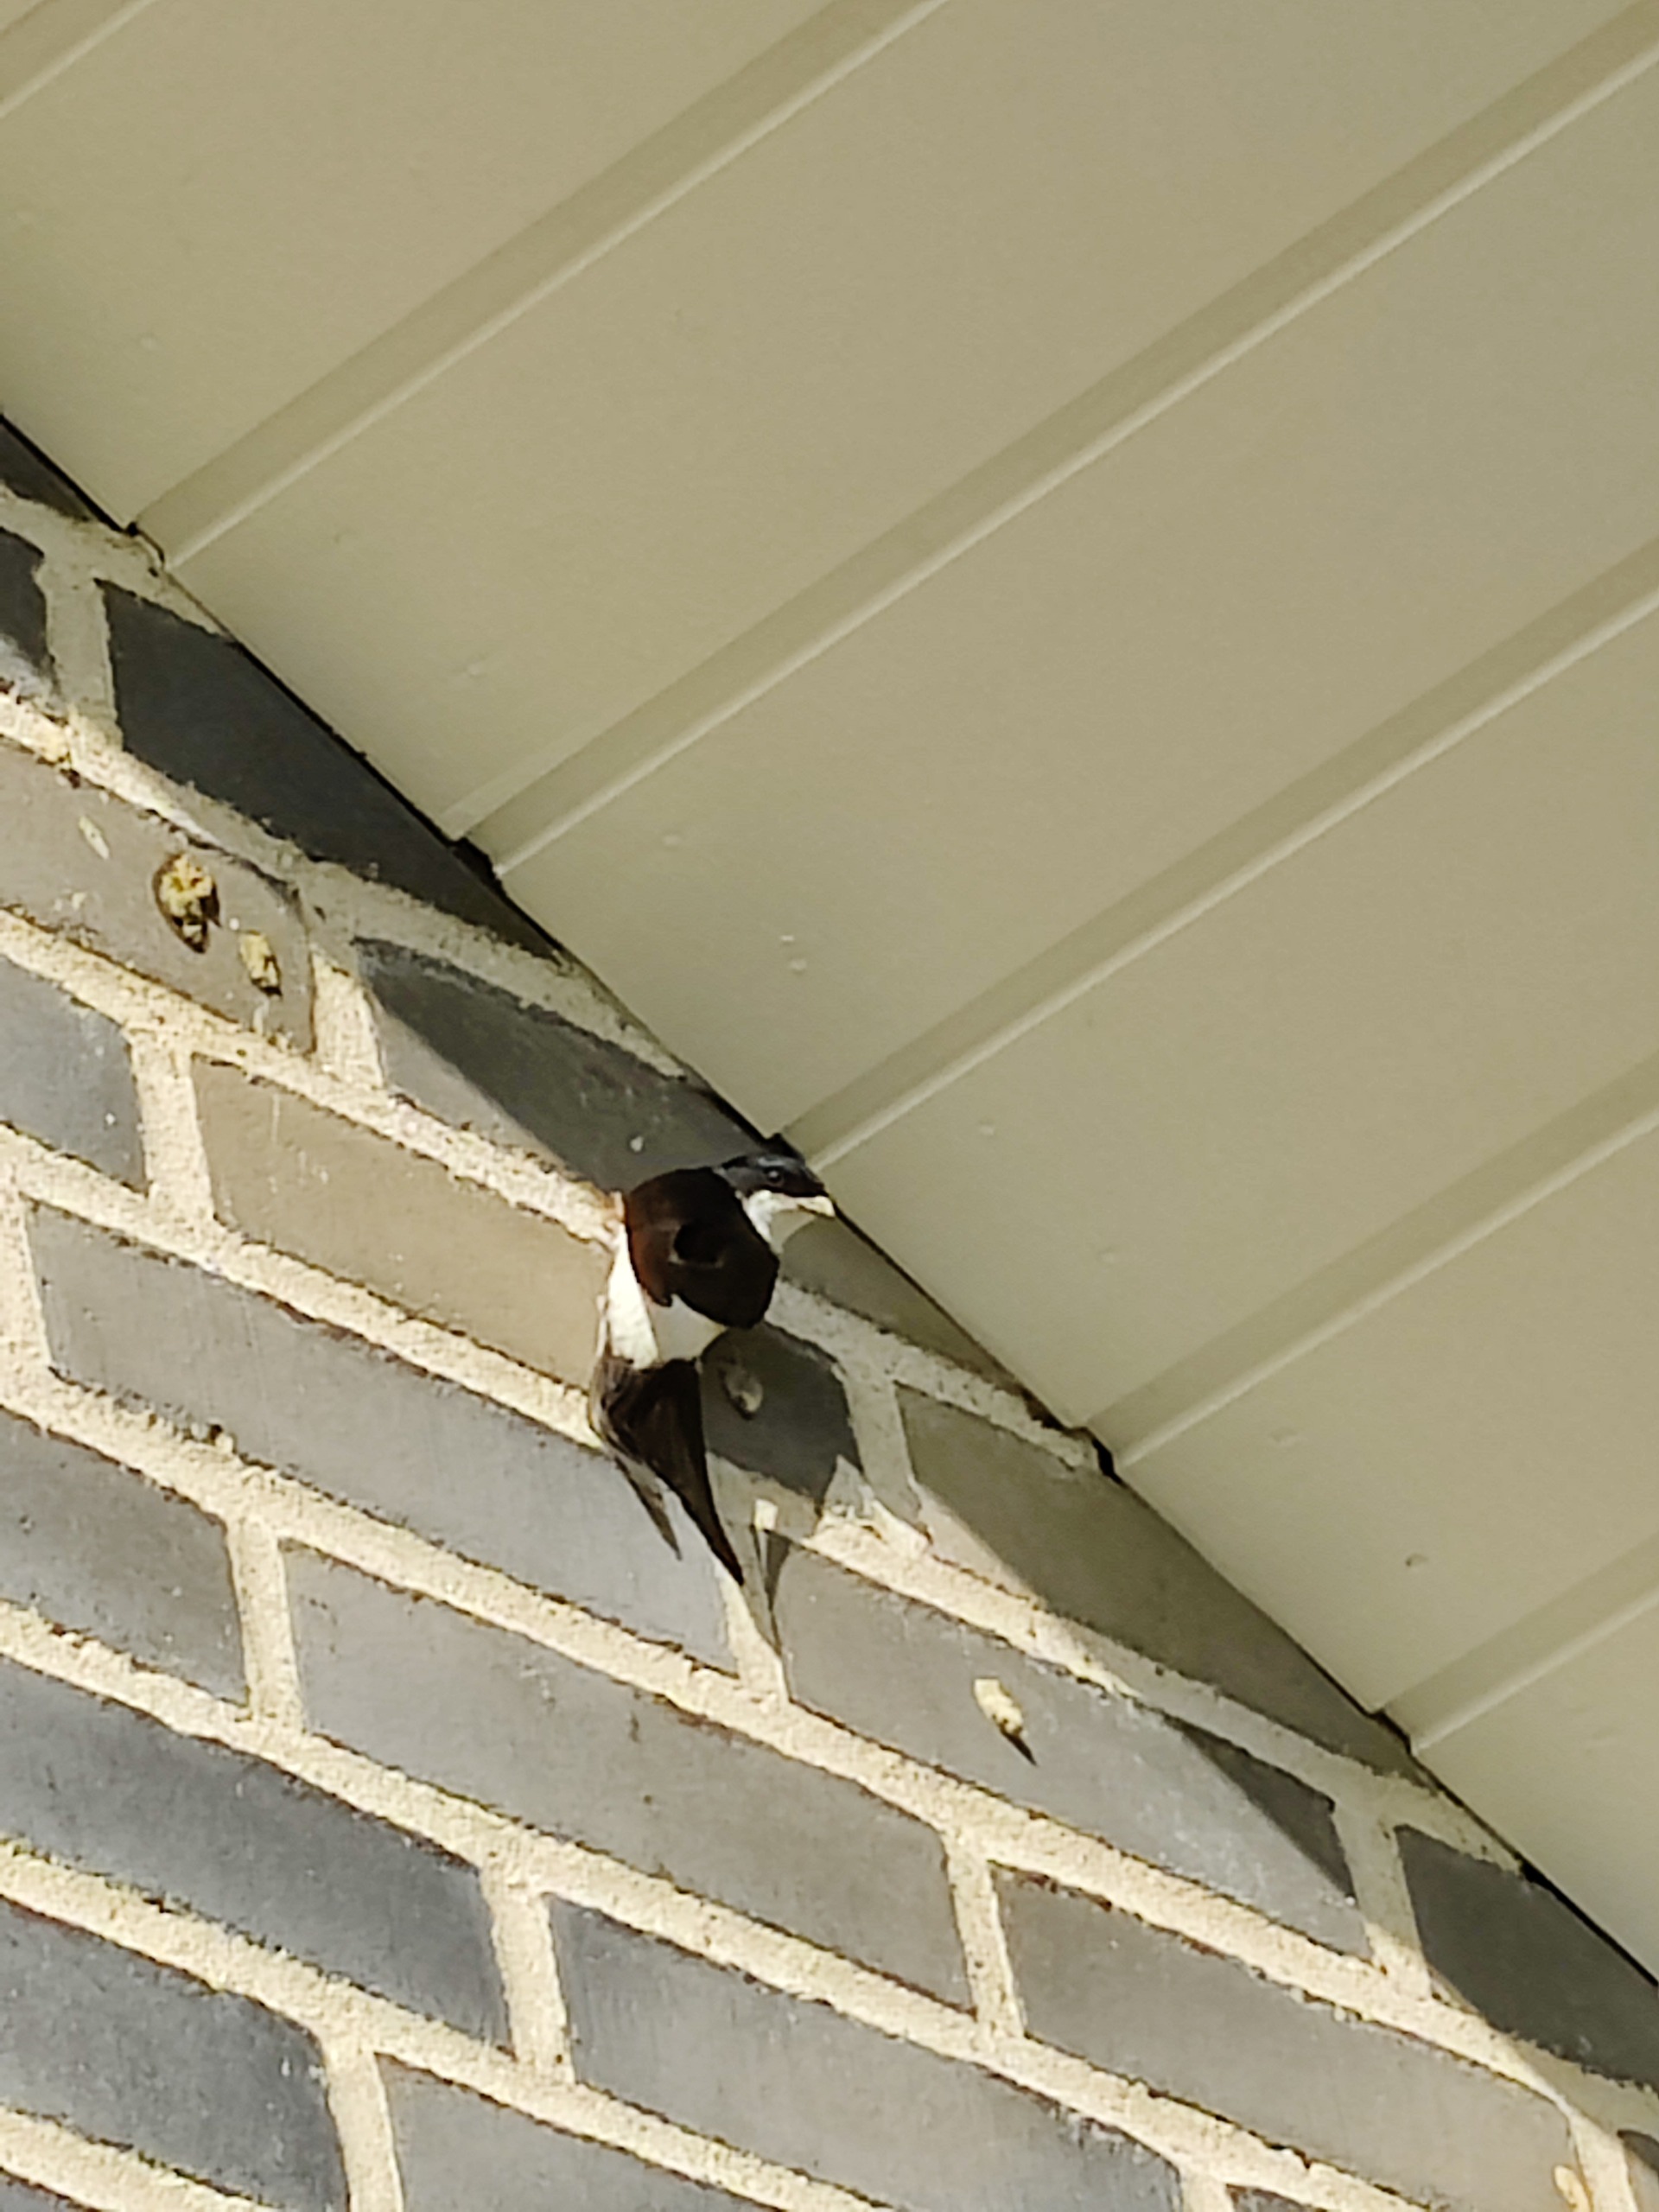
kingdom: Animalia
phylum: Chordata
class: Aves
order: Passeriformes
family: Hirundinidae
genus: Delichon
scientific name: Delichon urbicum
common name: Bysvale
